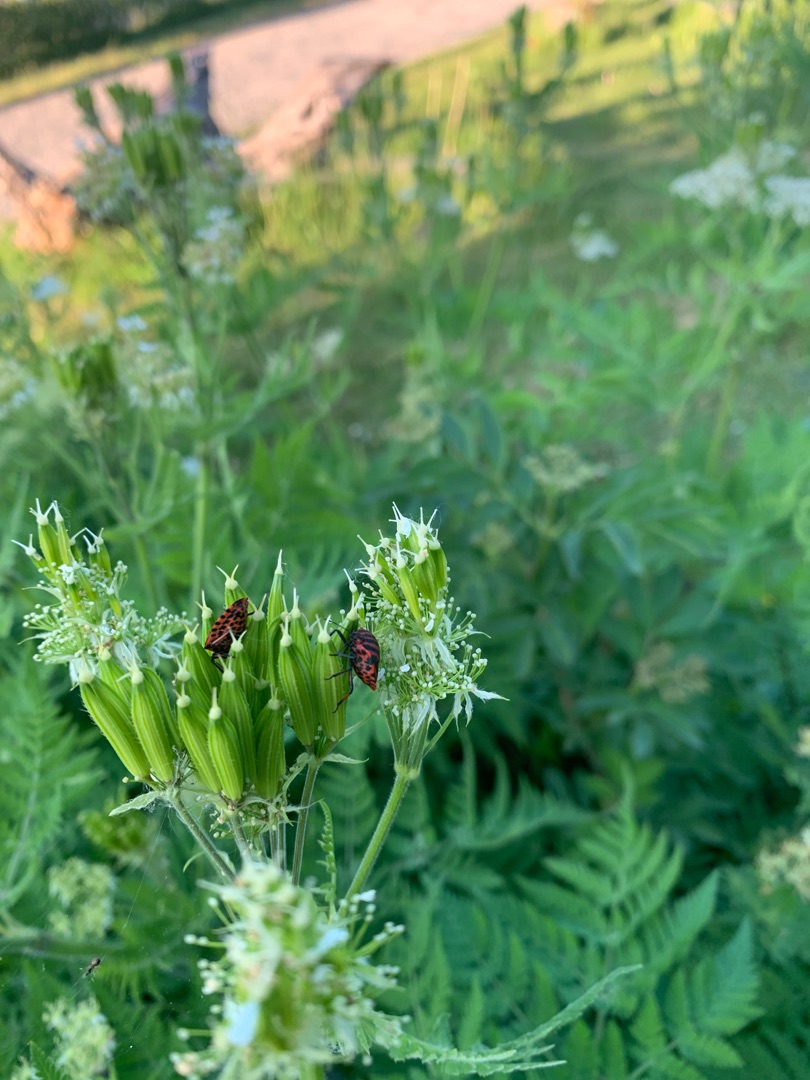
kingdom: Animalia
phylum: Arthropoda
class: Insecta
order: Hemiptera
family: Pentatomidae
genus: Graphosoma
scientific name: Graphosoma italicum
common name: Stribetæge
